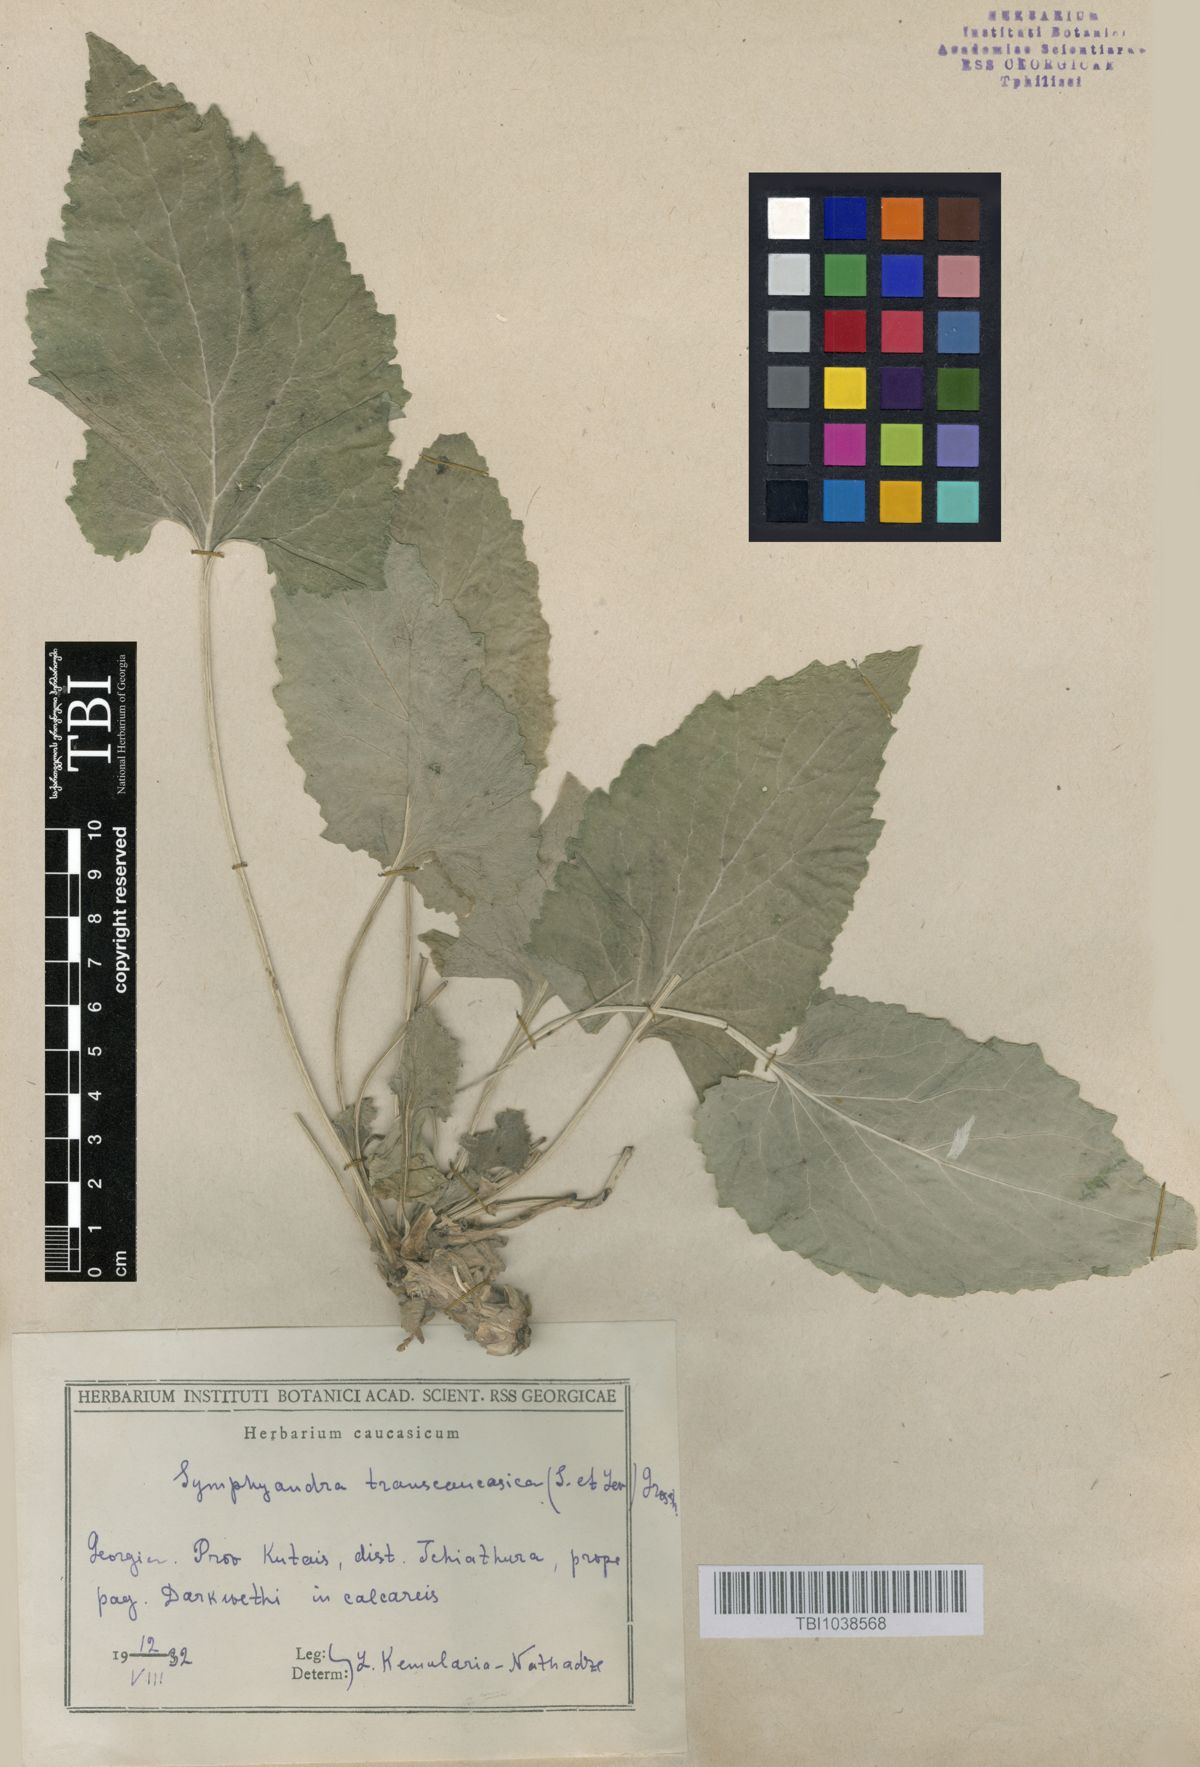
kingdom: Plantae
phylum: Tracheophyta
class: Magnoliopsida
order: Asterales
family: Campanulaceae
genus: Campanula
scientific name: Campanula pendula
